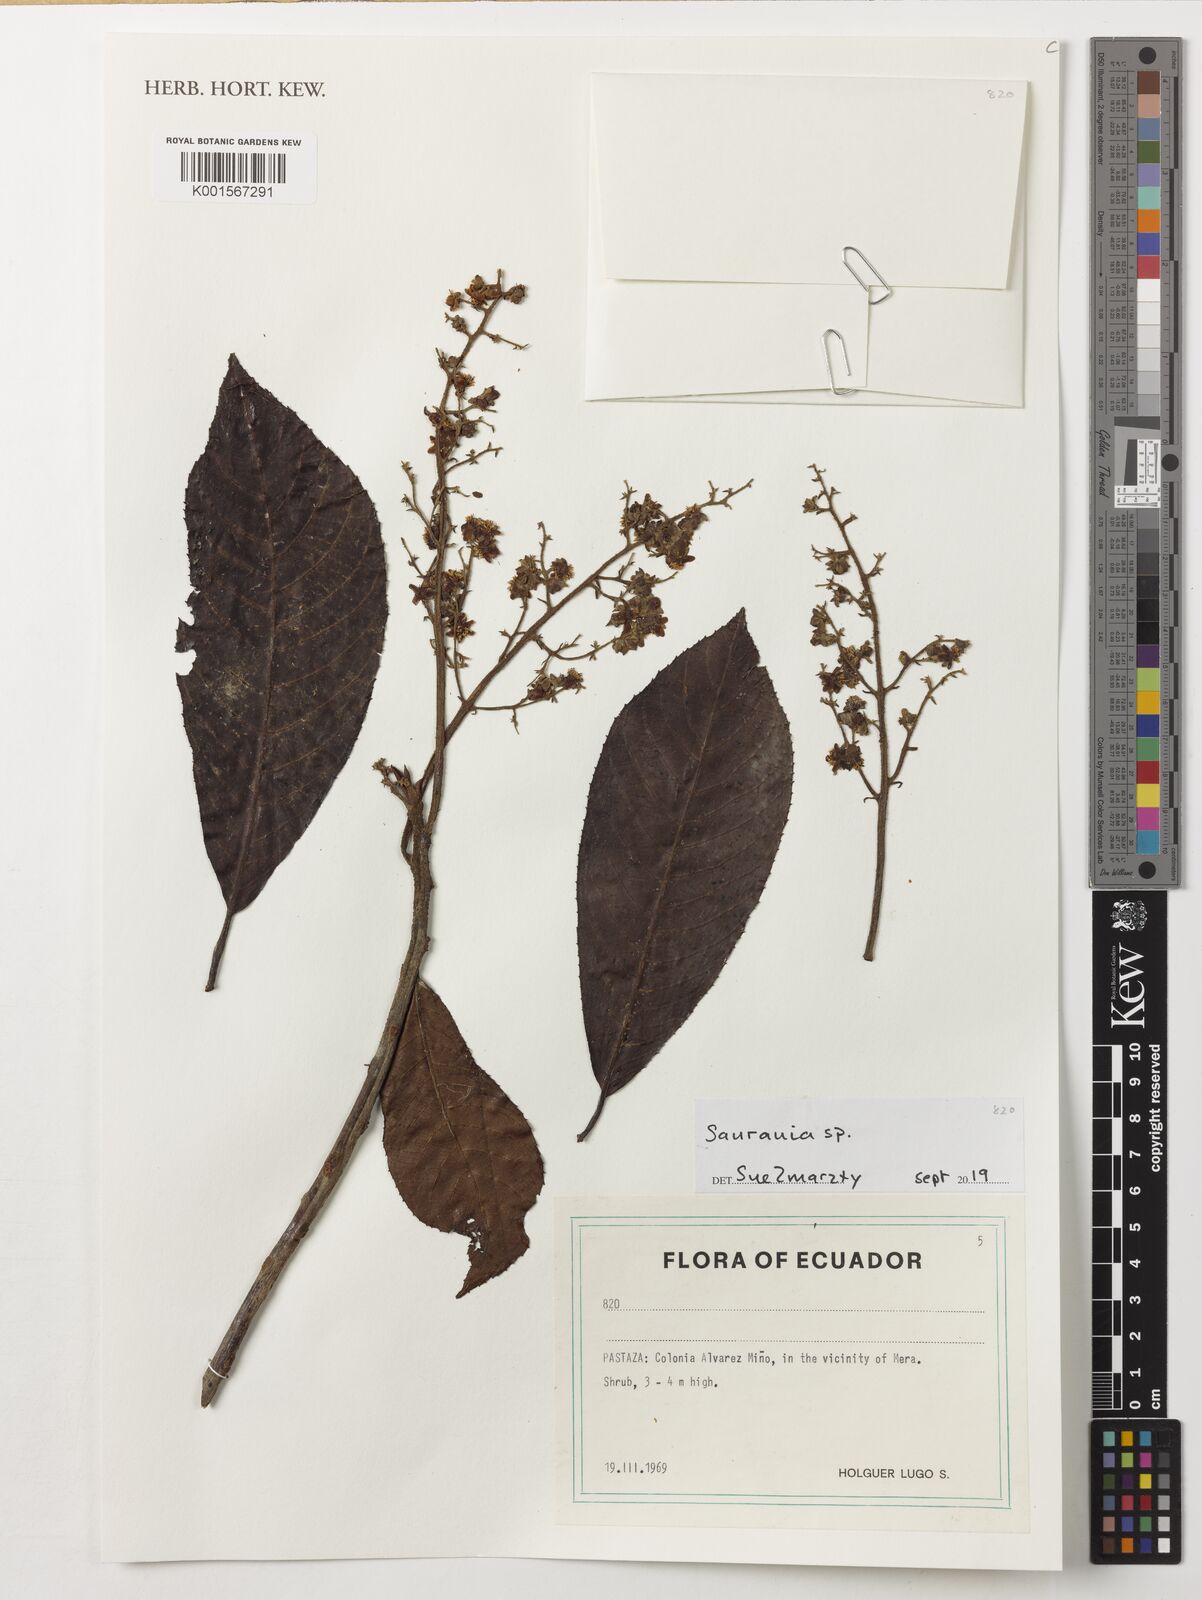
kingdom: Plantae
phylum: Tracheophyta
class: Magnoliopsida
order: Ericales
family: Actinidiaceae
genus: Saurauia
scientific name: Saurauia
